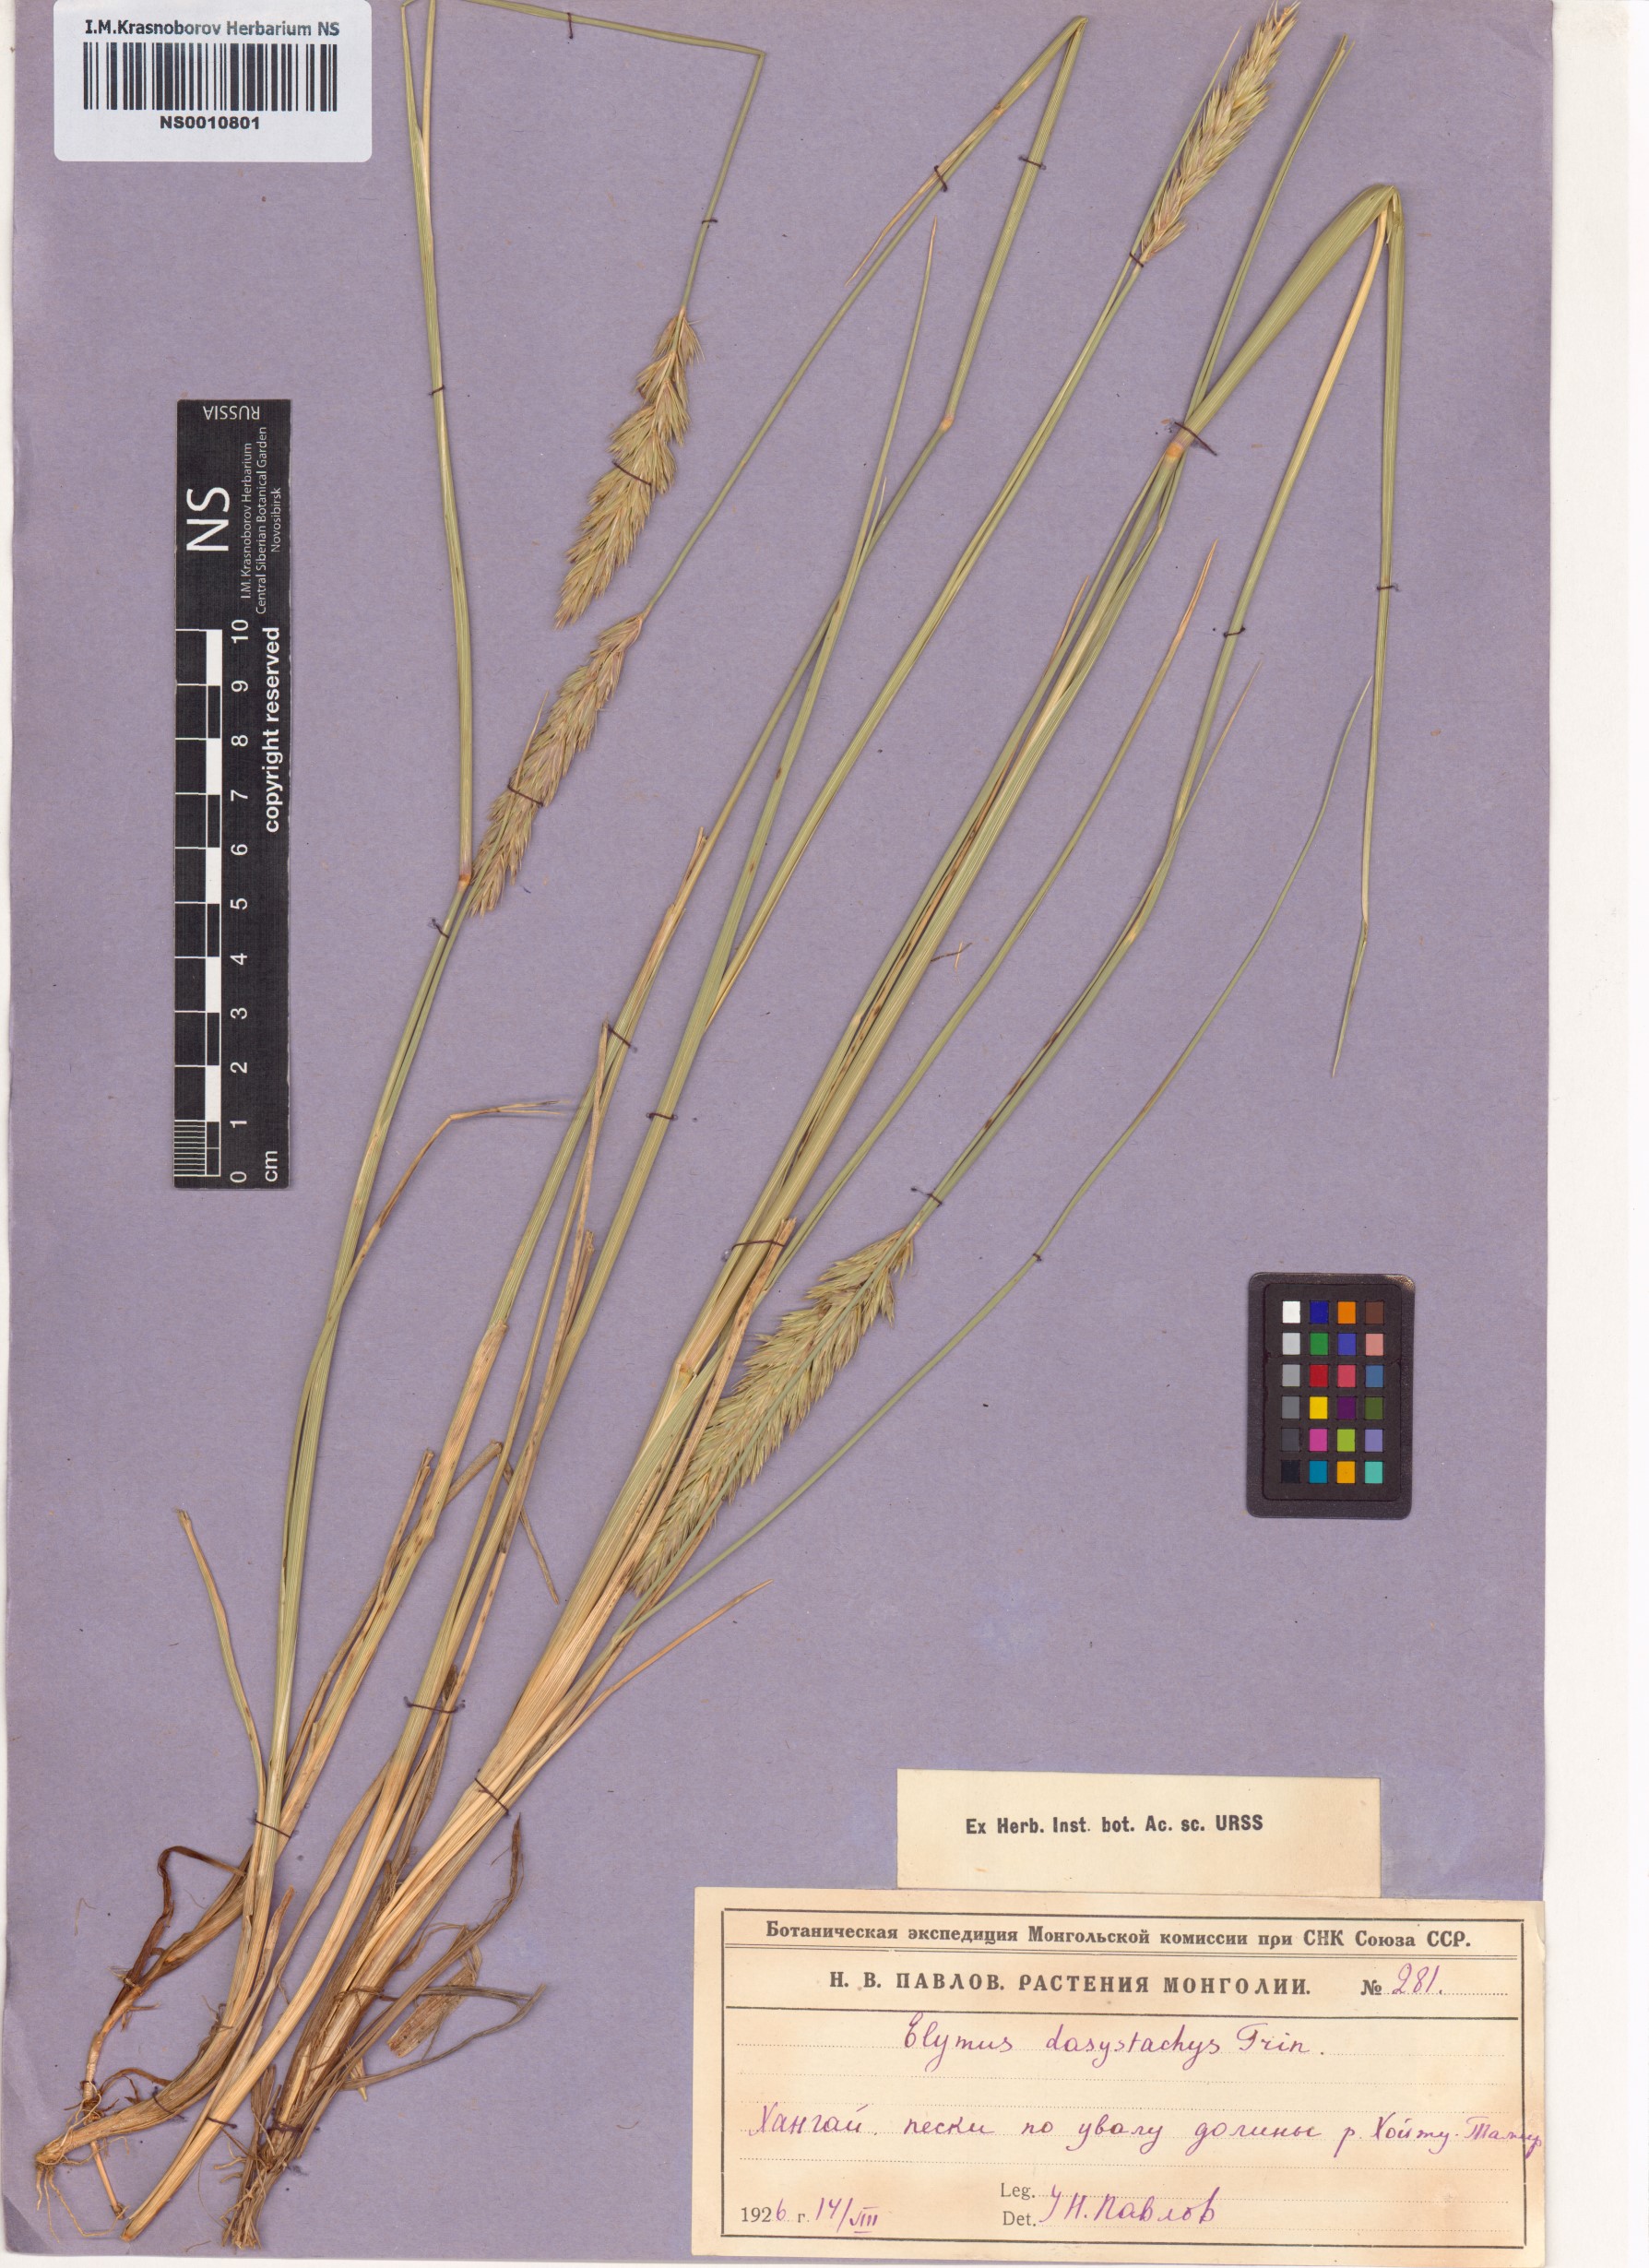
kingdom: Plantae
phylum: Tracheophyta
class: Liliopsida
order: Poales
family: Poaceae
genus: Leymus
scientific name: Leymus secalinus
